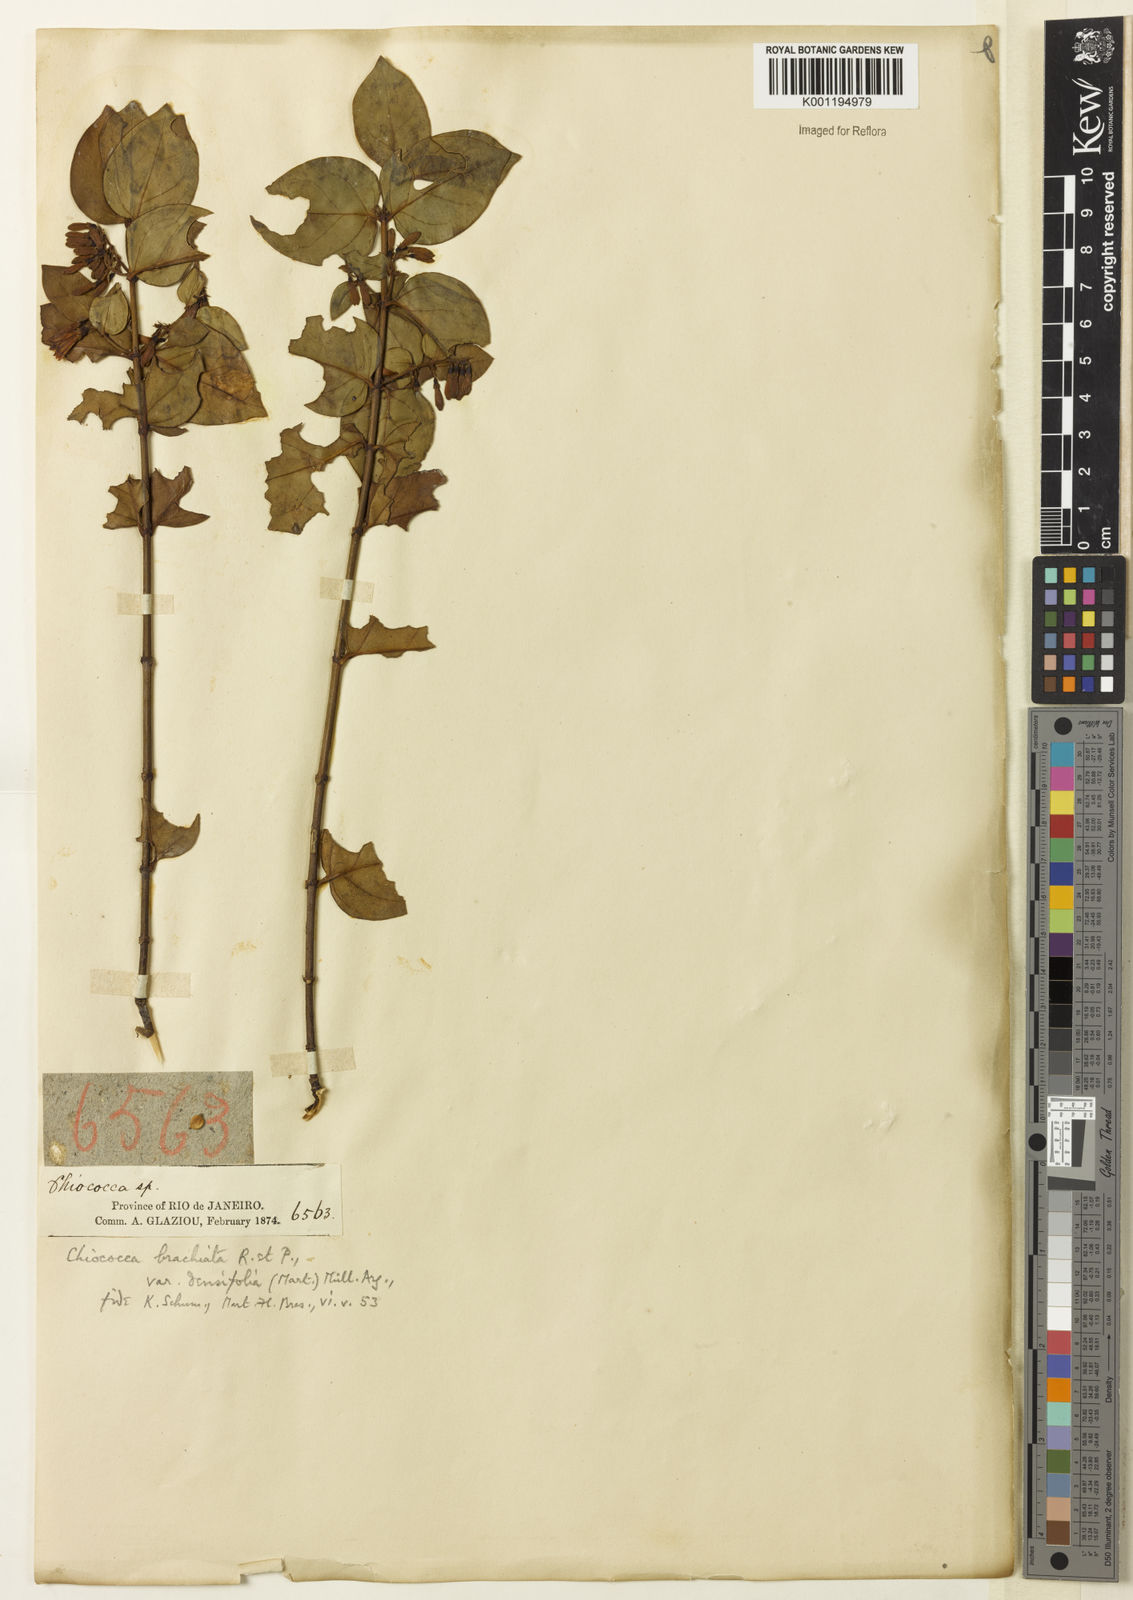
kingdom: Plantae
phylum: Tracheophyta
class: Magnoliopsida
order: Gentianales
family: Rubiaceae
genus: Chiococca
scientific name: Chiococca alba
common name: Snowberry
